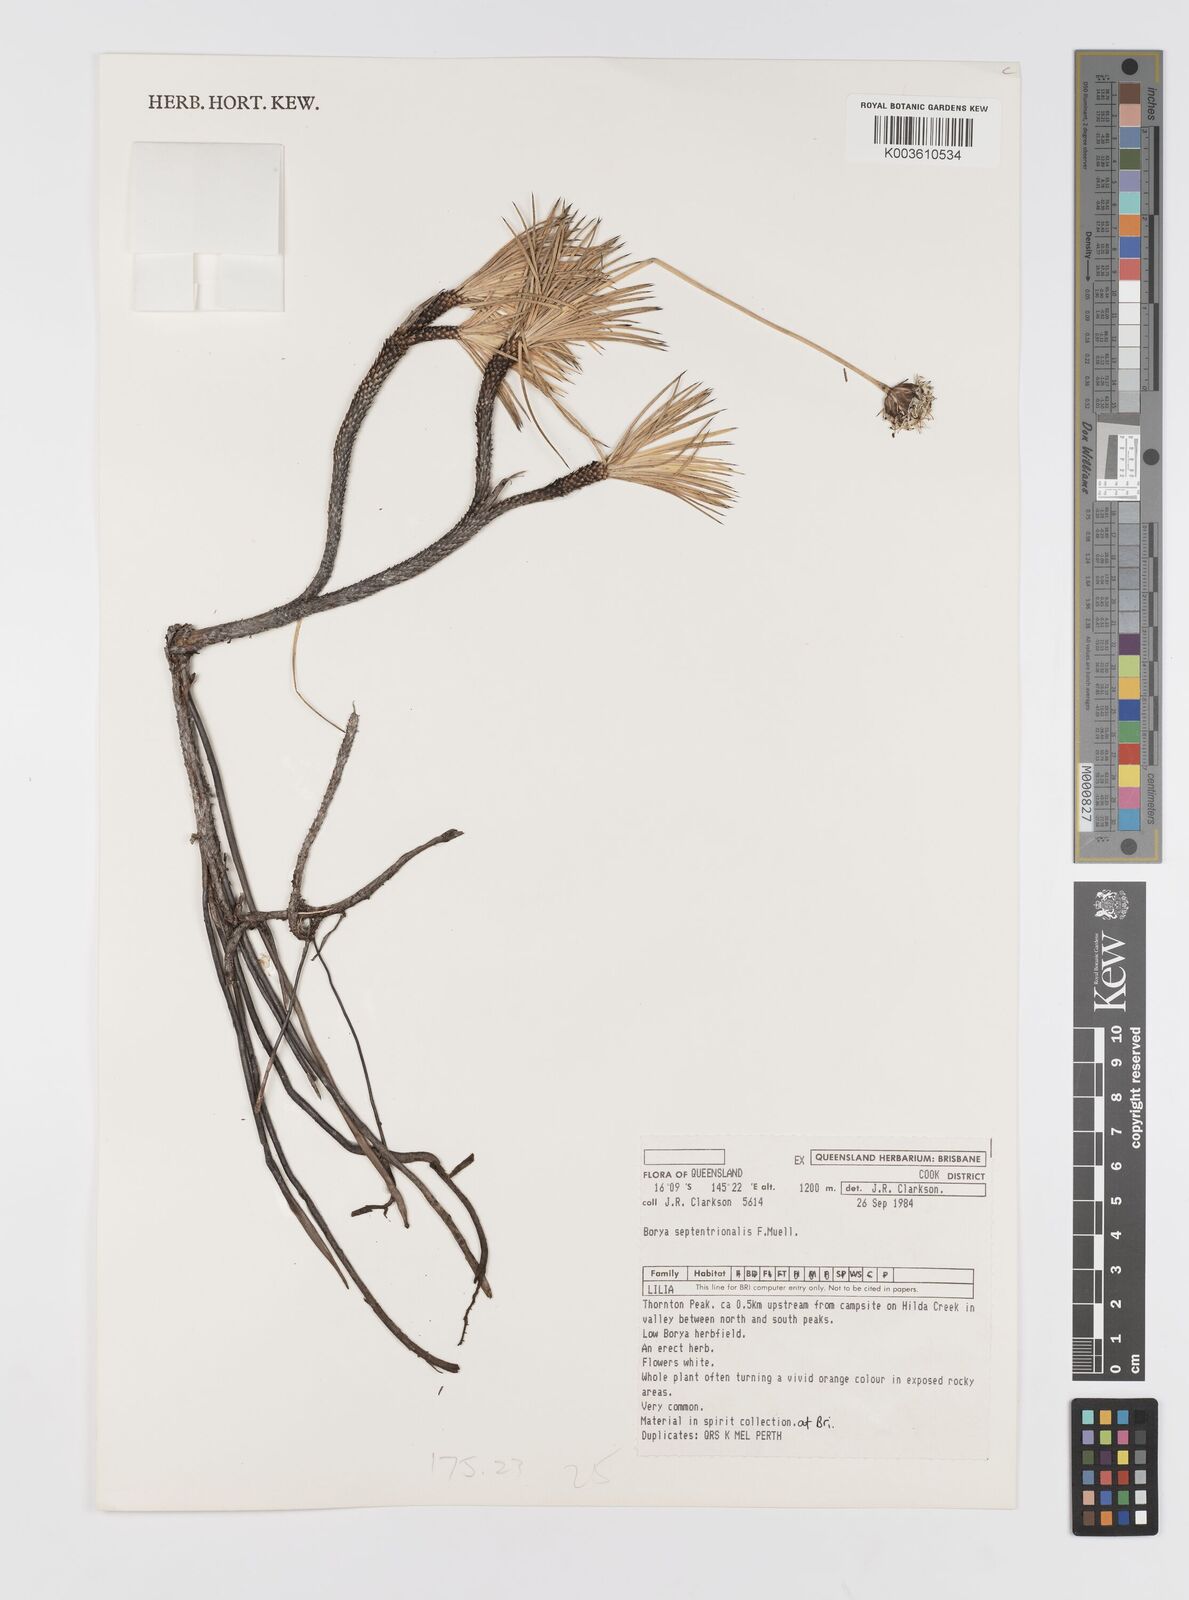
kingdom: Plantae
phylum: Tracheophyta
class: Liliopsida
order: Asparagales
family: Boryaceae
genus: Borya
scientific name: Borya septentrionalis
